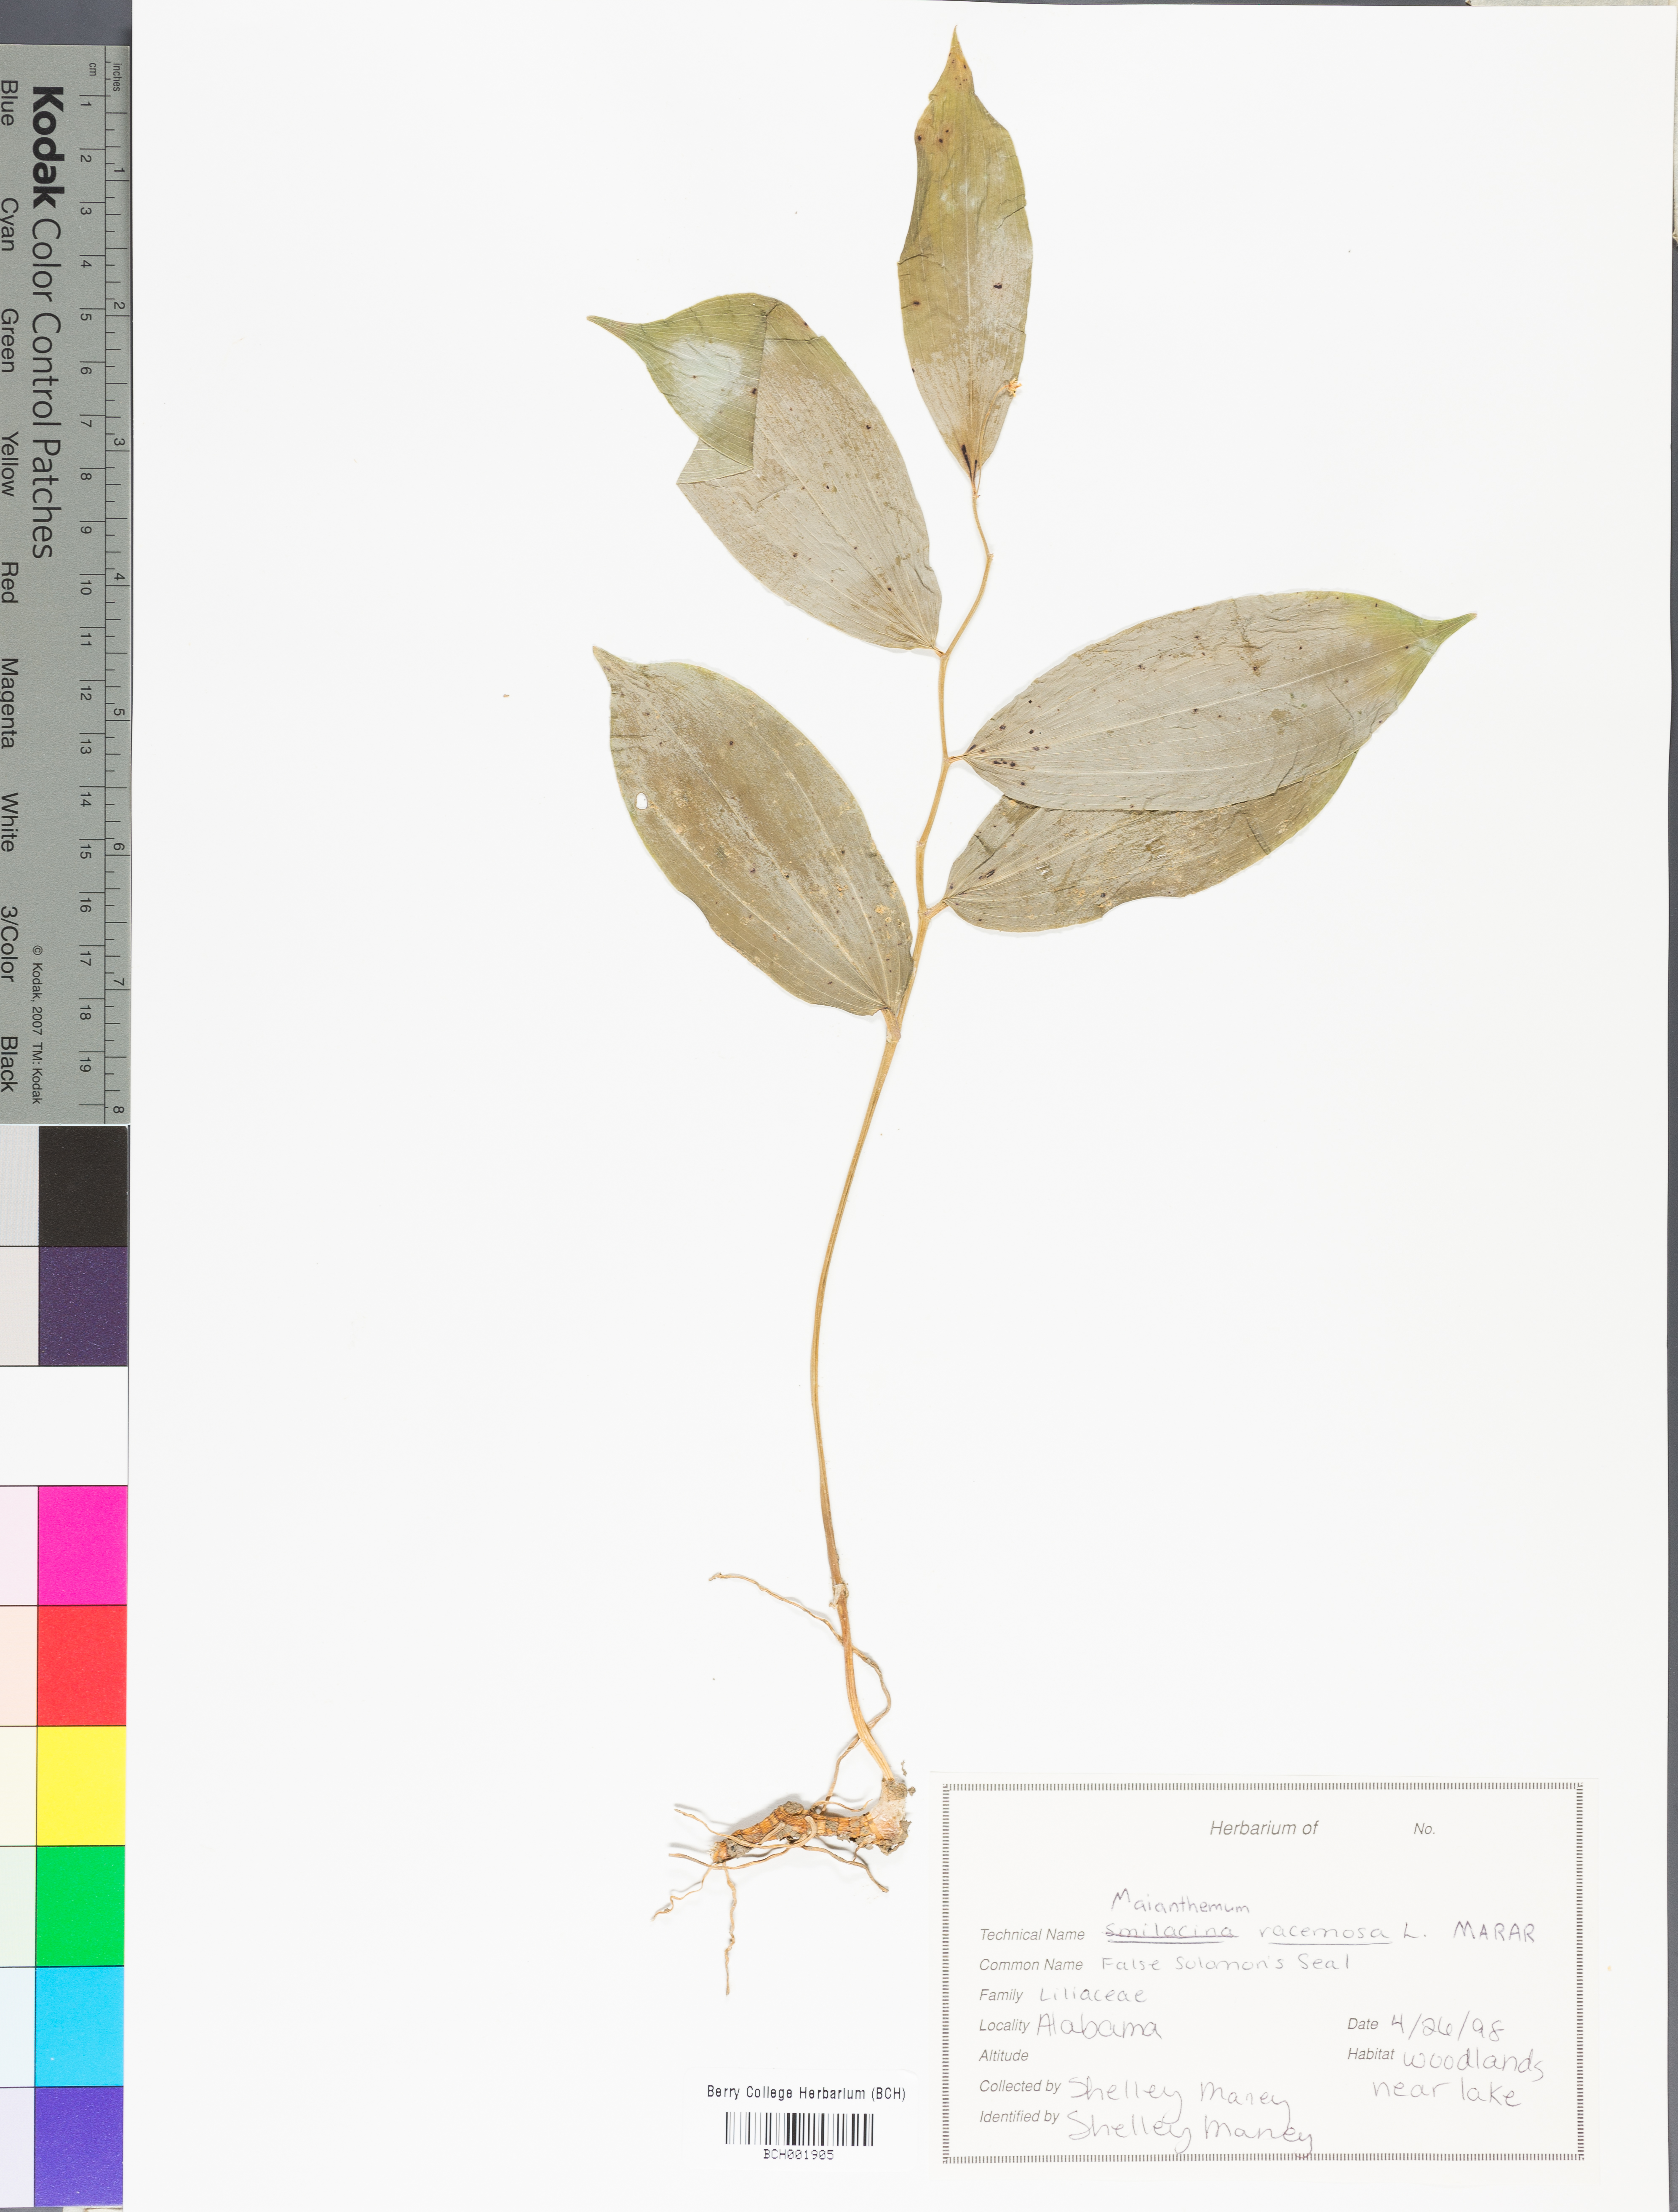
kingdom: Plantae
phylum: Tracheophyta
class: Liliopsida
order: Asparagales
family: Asparagaceae
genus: Maianthemum
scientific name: Maianthemum racemosum
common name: False spikenard
